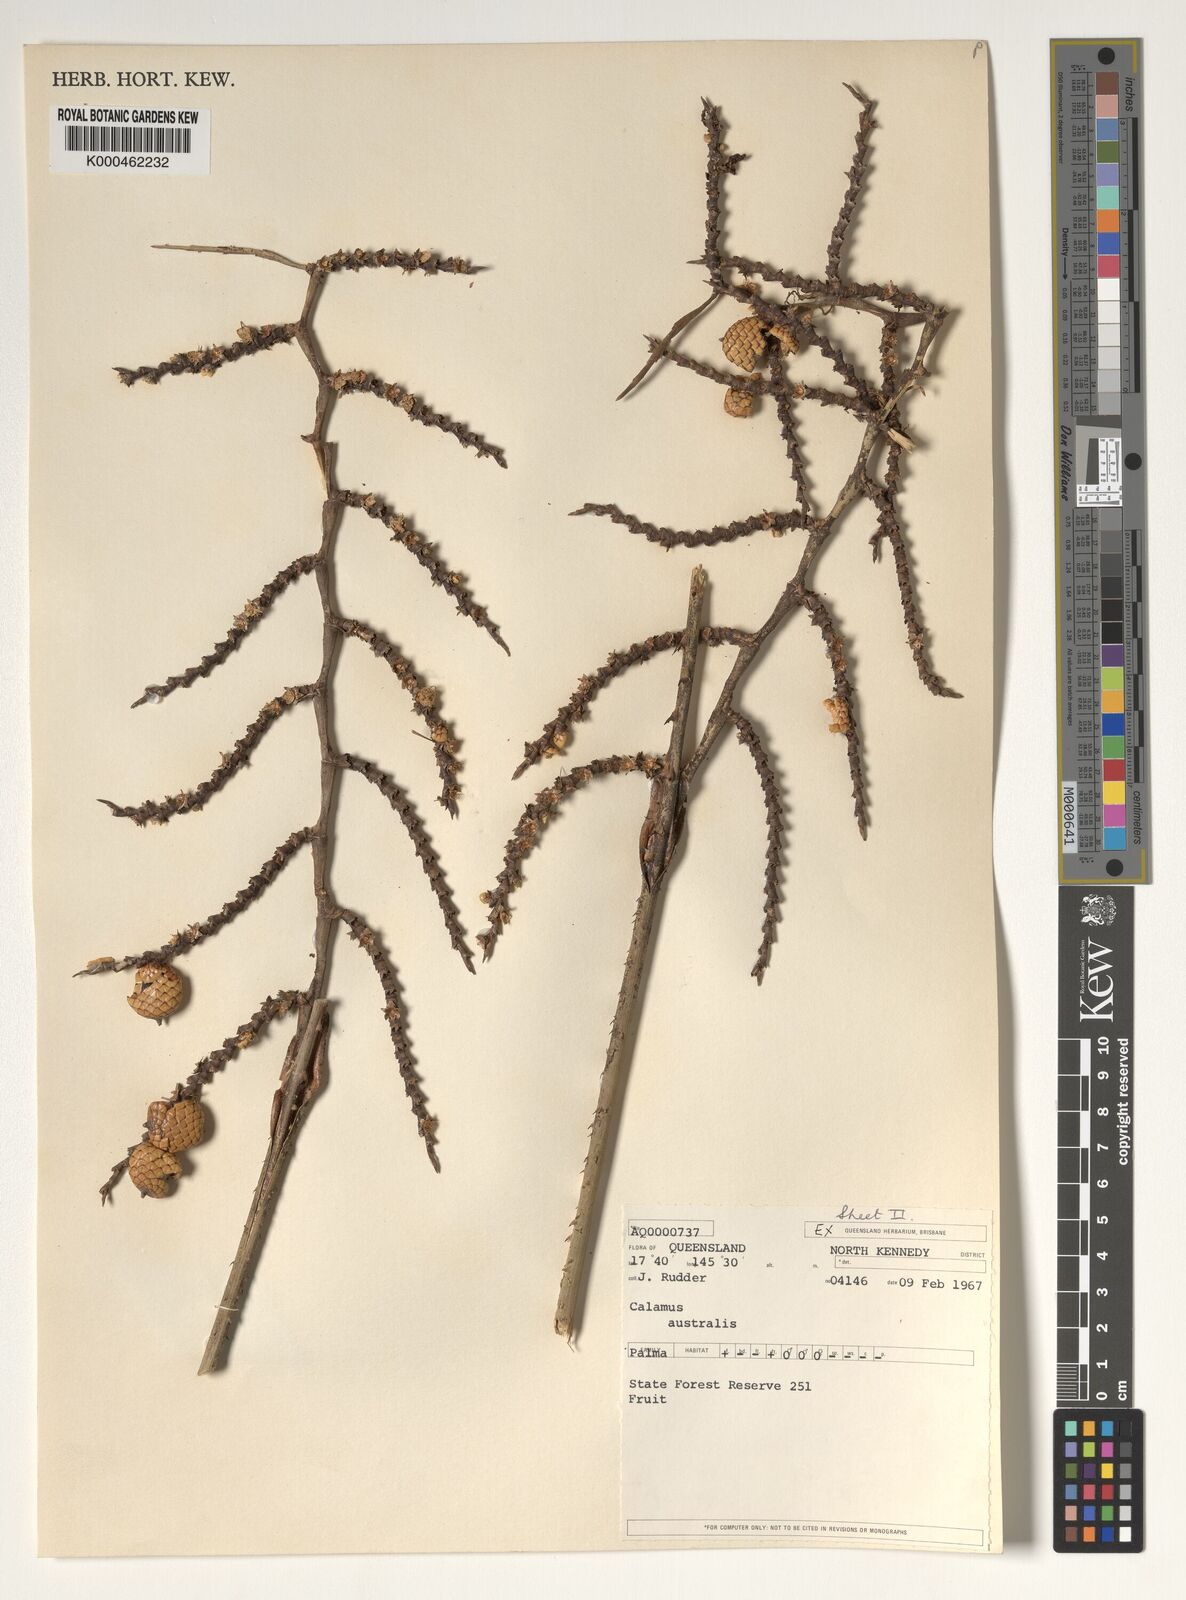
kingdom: Plantae
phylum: Tracheophyta
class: Liliopsida
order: Arecales
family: Arecaceae
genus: Calamus
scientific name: Calamus australis
